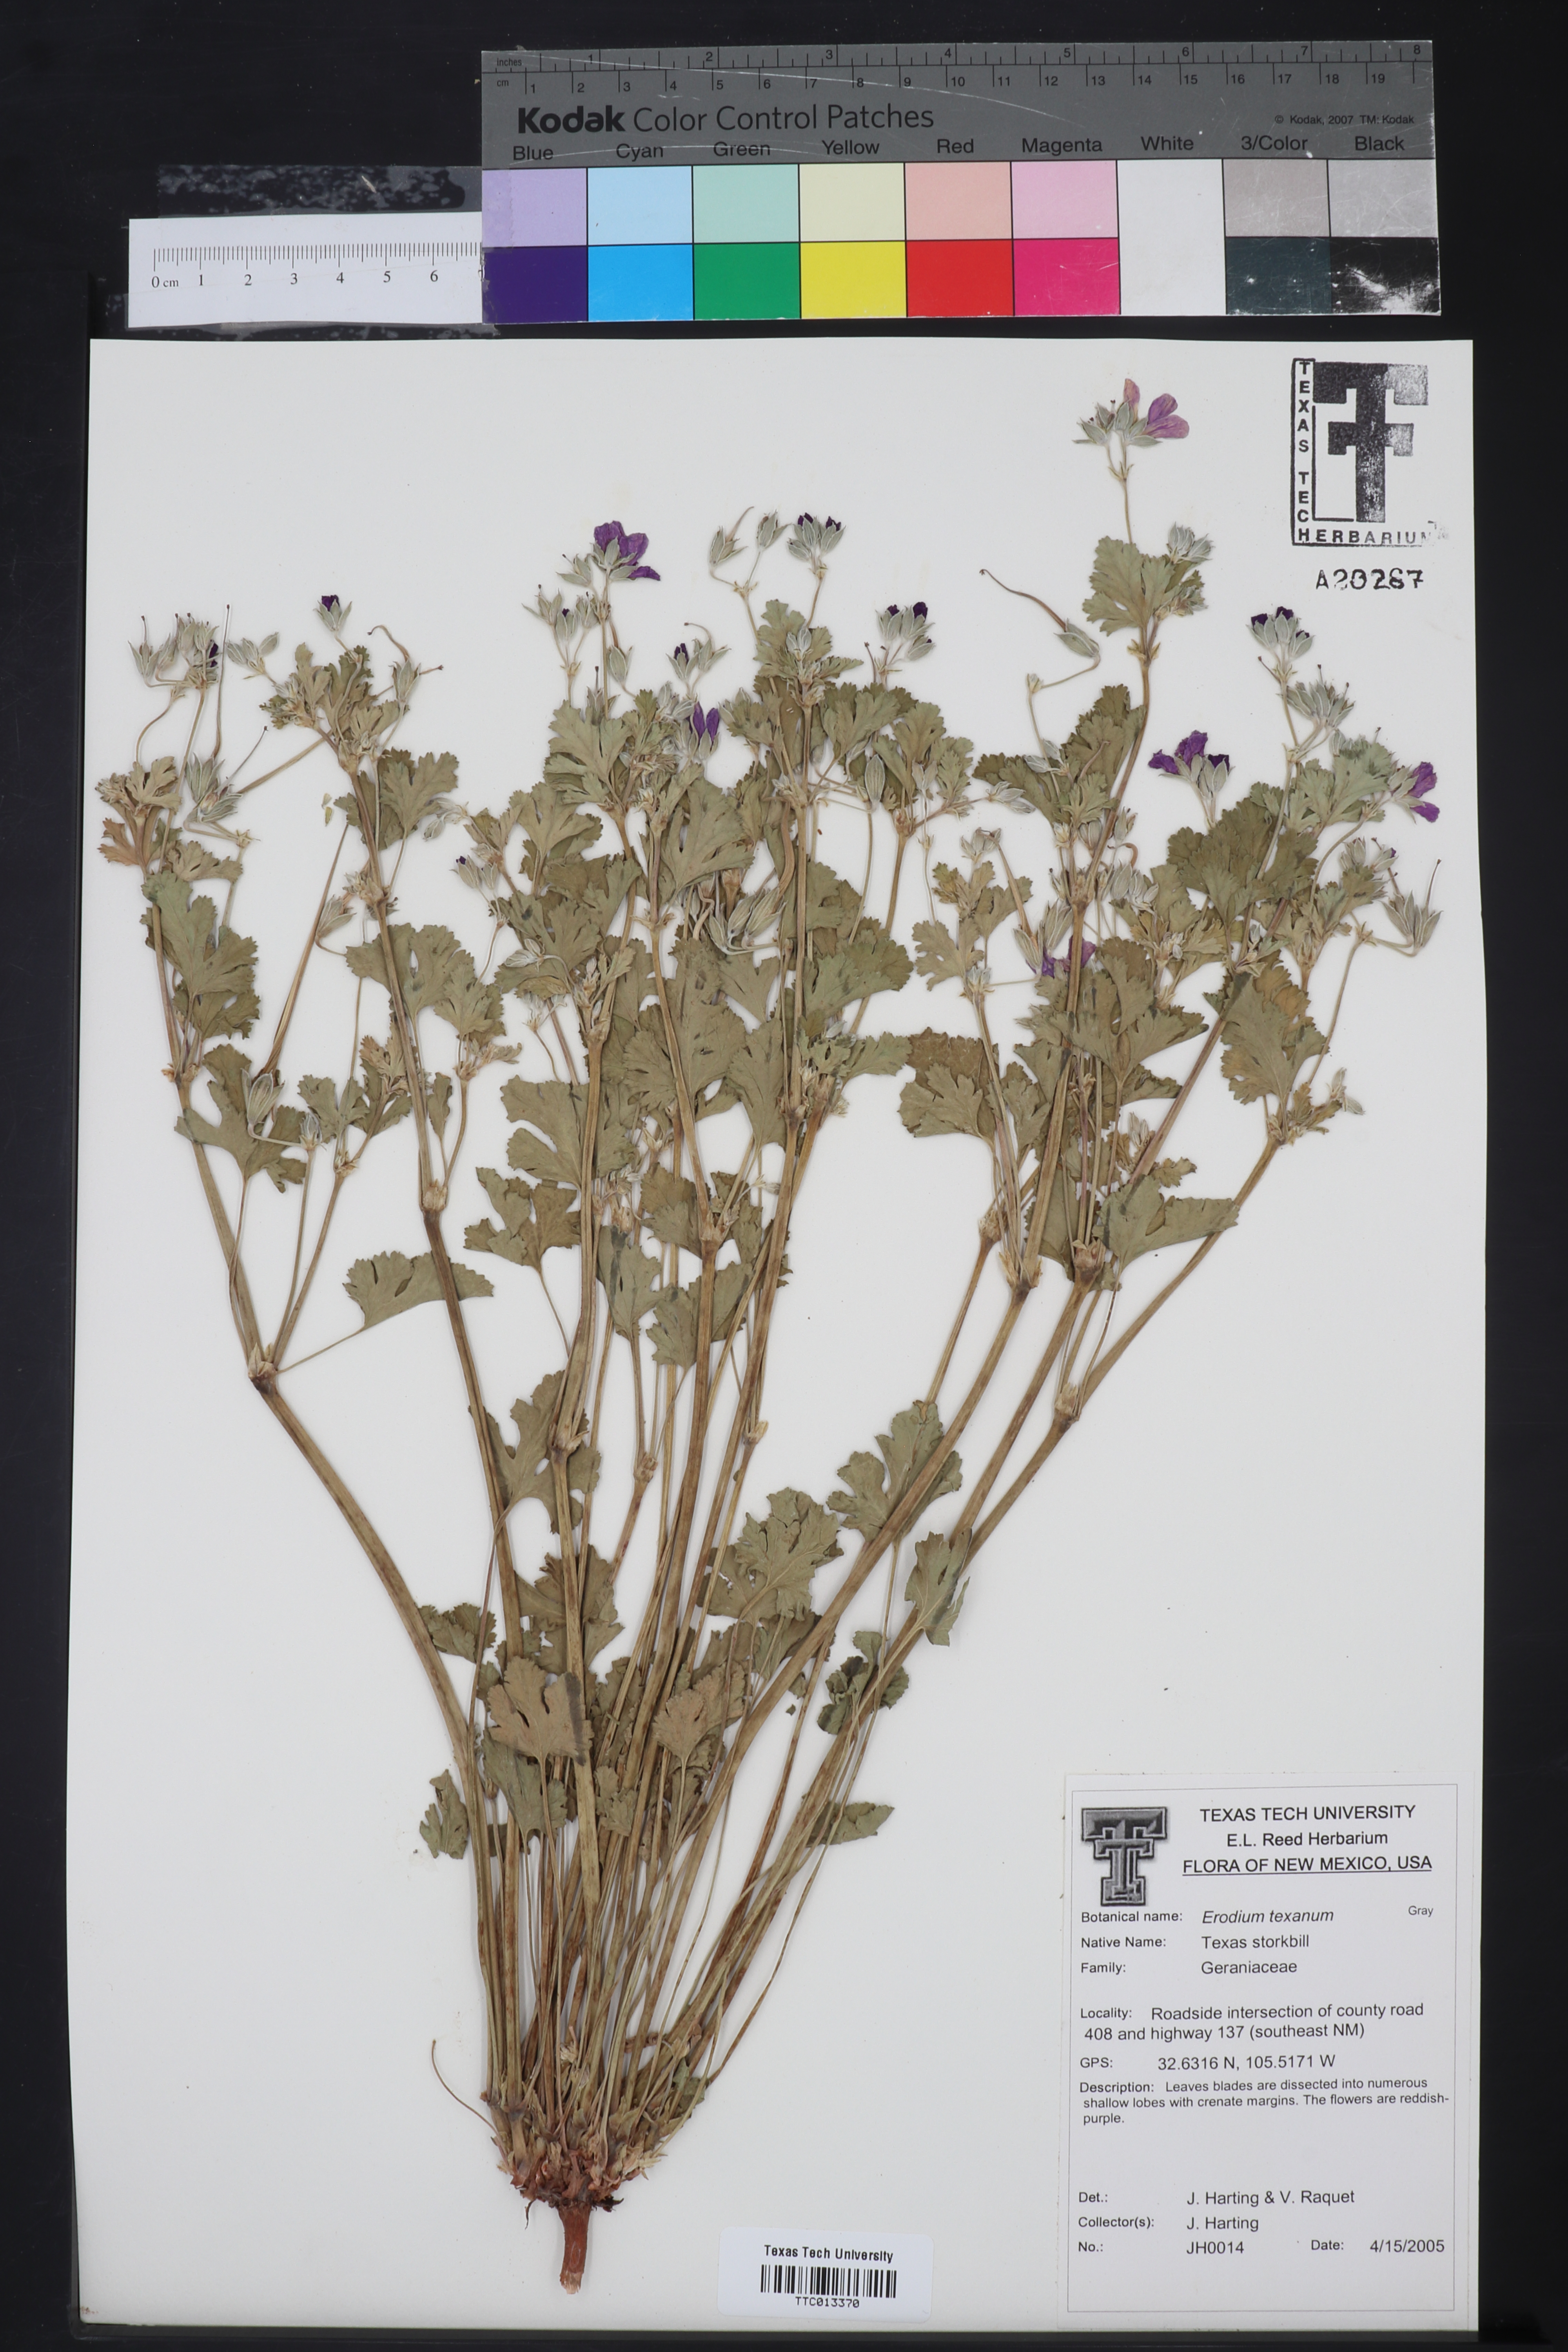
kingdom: Plantae
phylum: Tracheophyta
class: Magnoliopsida
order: Geraniales
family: Geraniaceae
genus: Erodium
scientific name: Erodium texanum
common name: Texas stork's-bill
